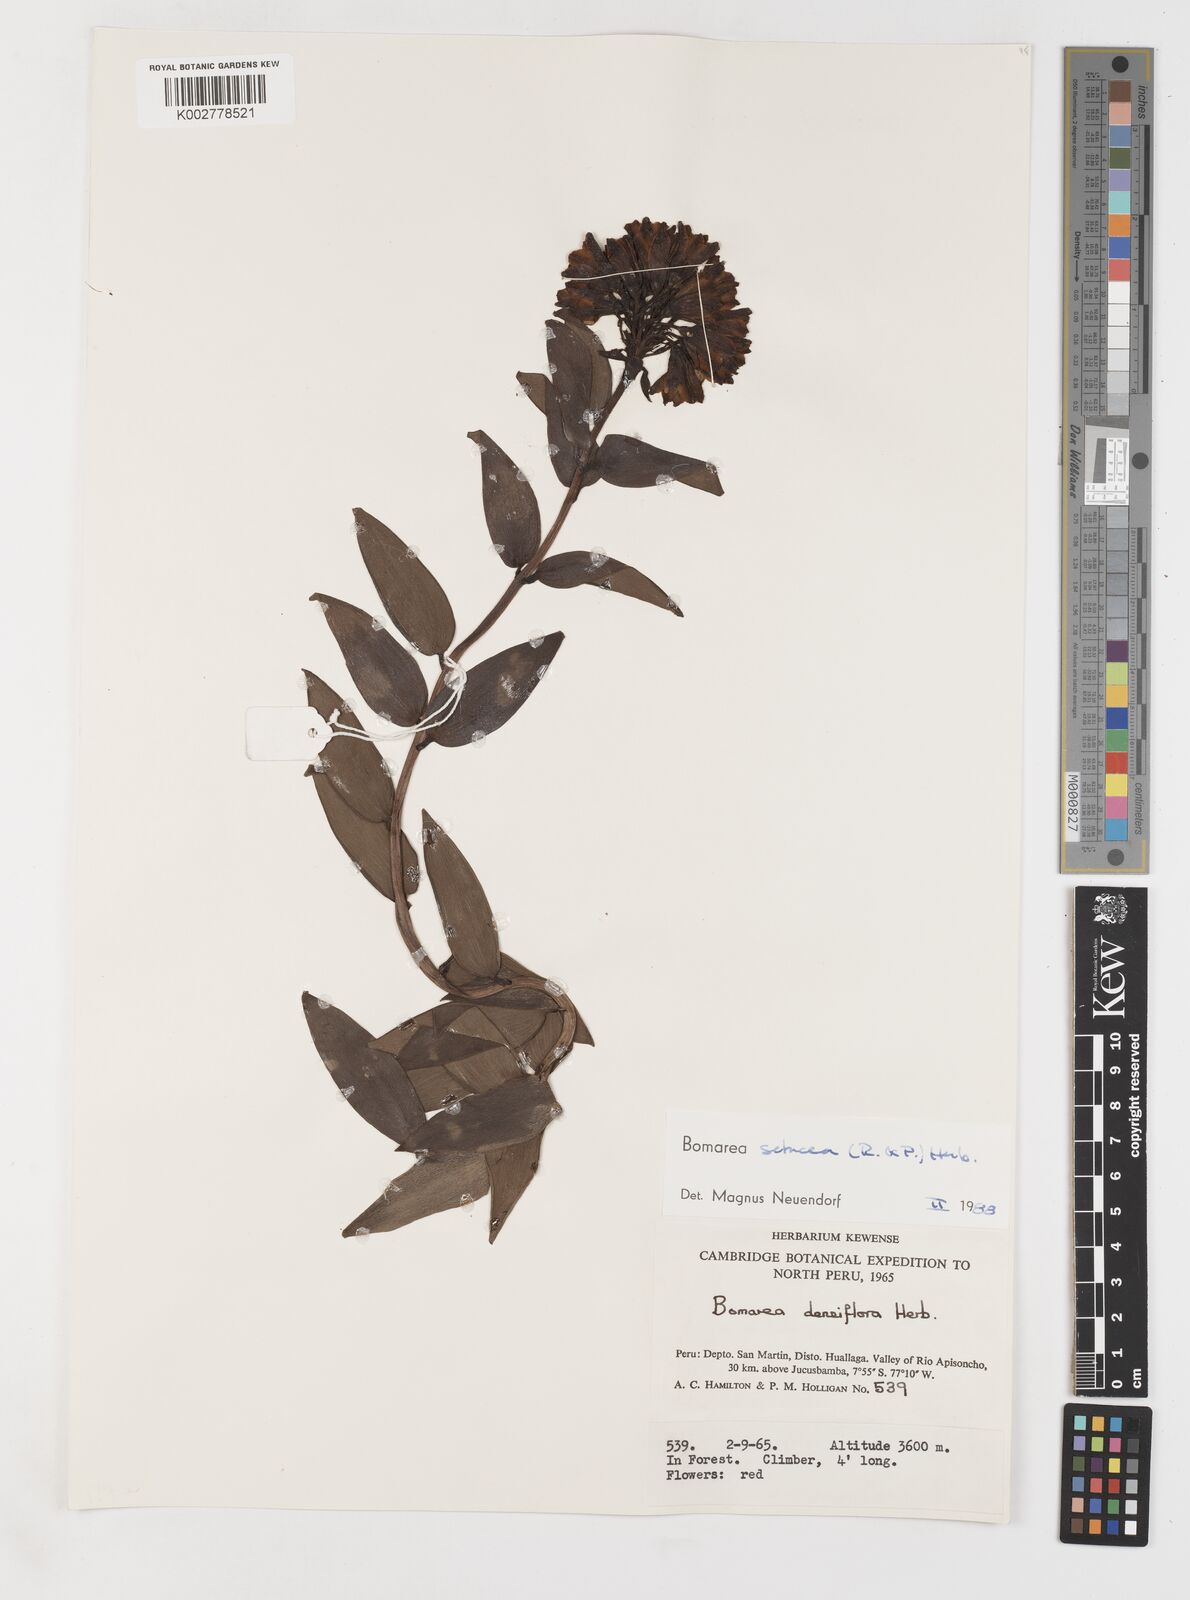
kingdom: Plantae
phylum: Tracheophyta
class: Liliopsida
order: Liliales
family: Alstroemeriaceae
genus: Bomarea
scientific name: Bomarea setacea
